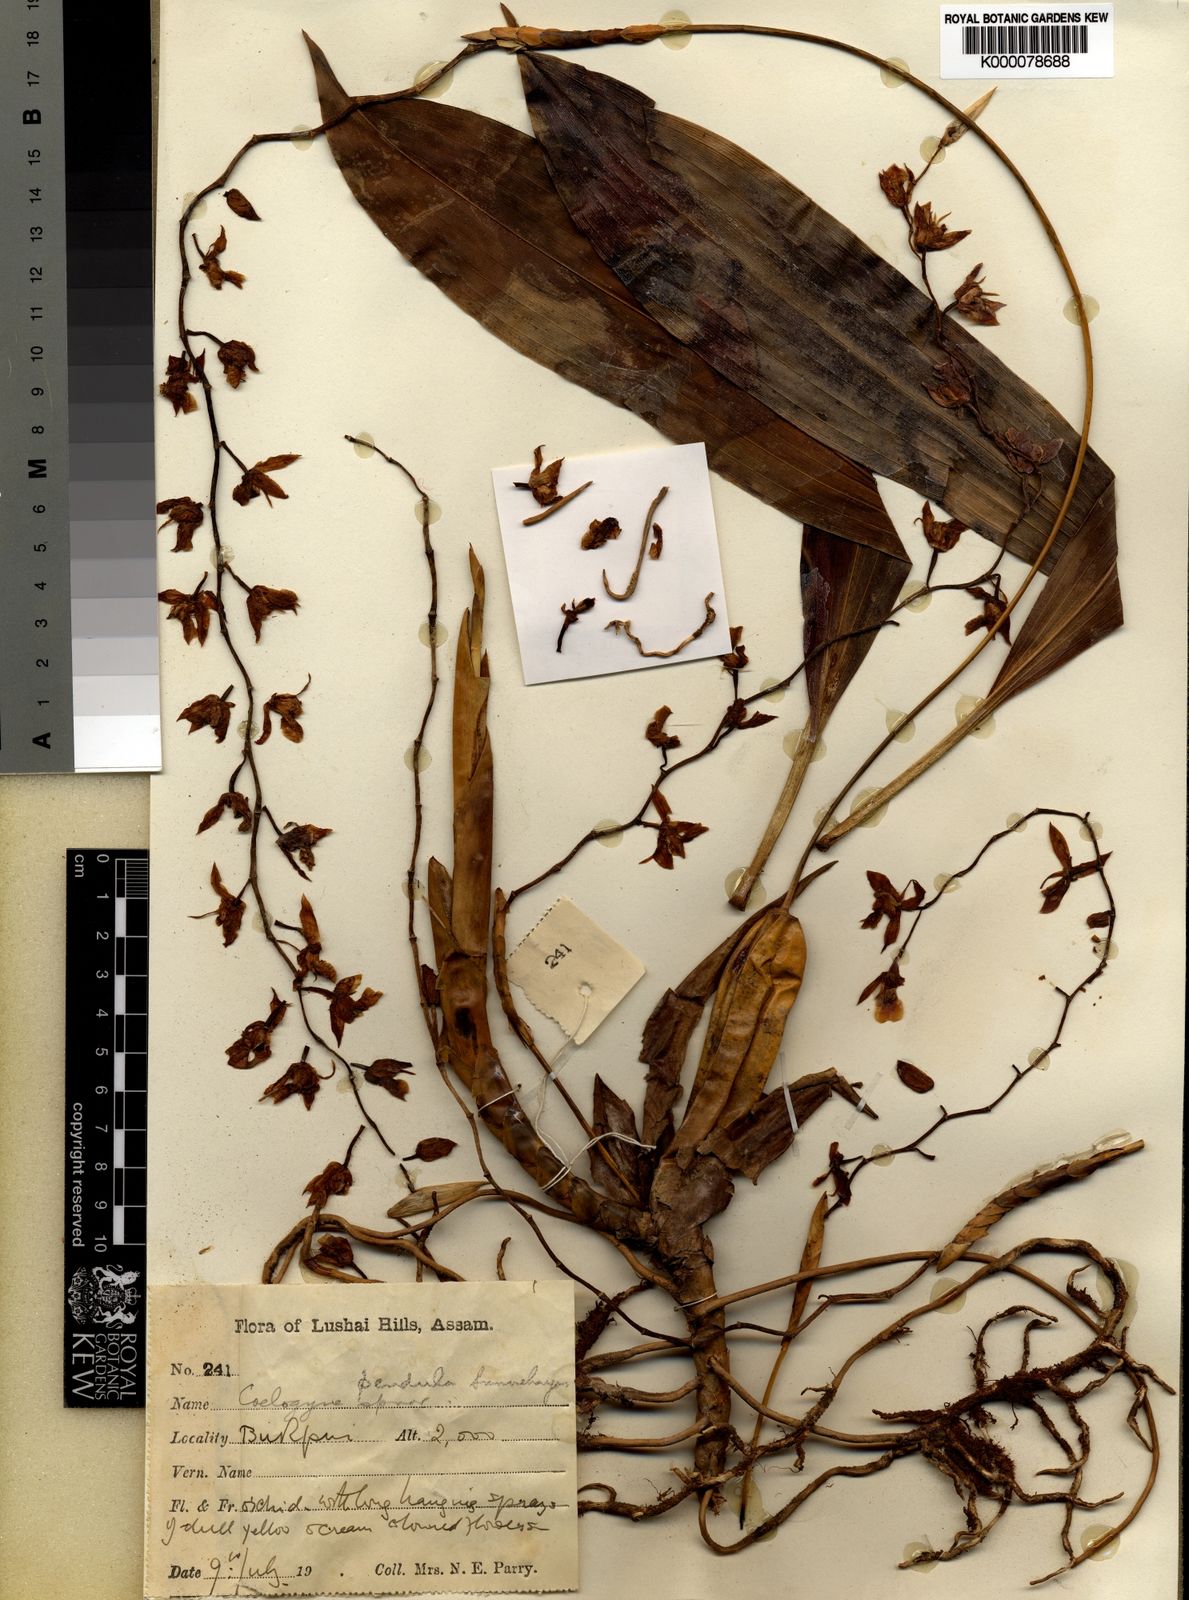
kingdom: Plantae
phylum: Tracheophyta
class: Liliopsida
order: Asparagales
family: Orchidaceae
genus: Coelogyne
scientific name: Coelogyne pendula
